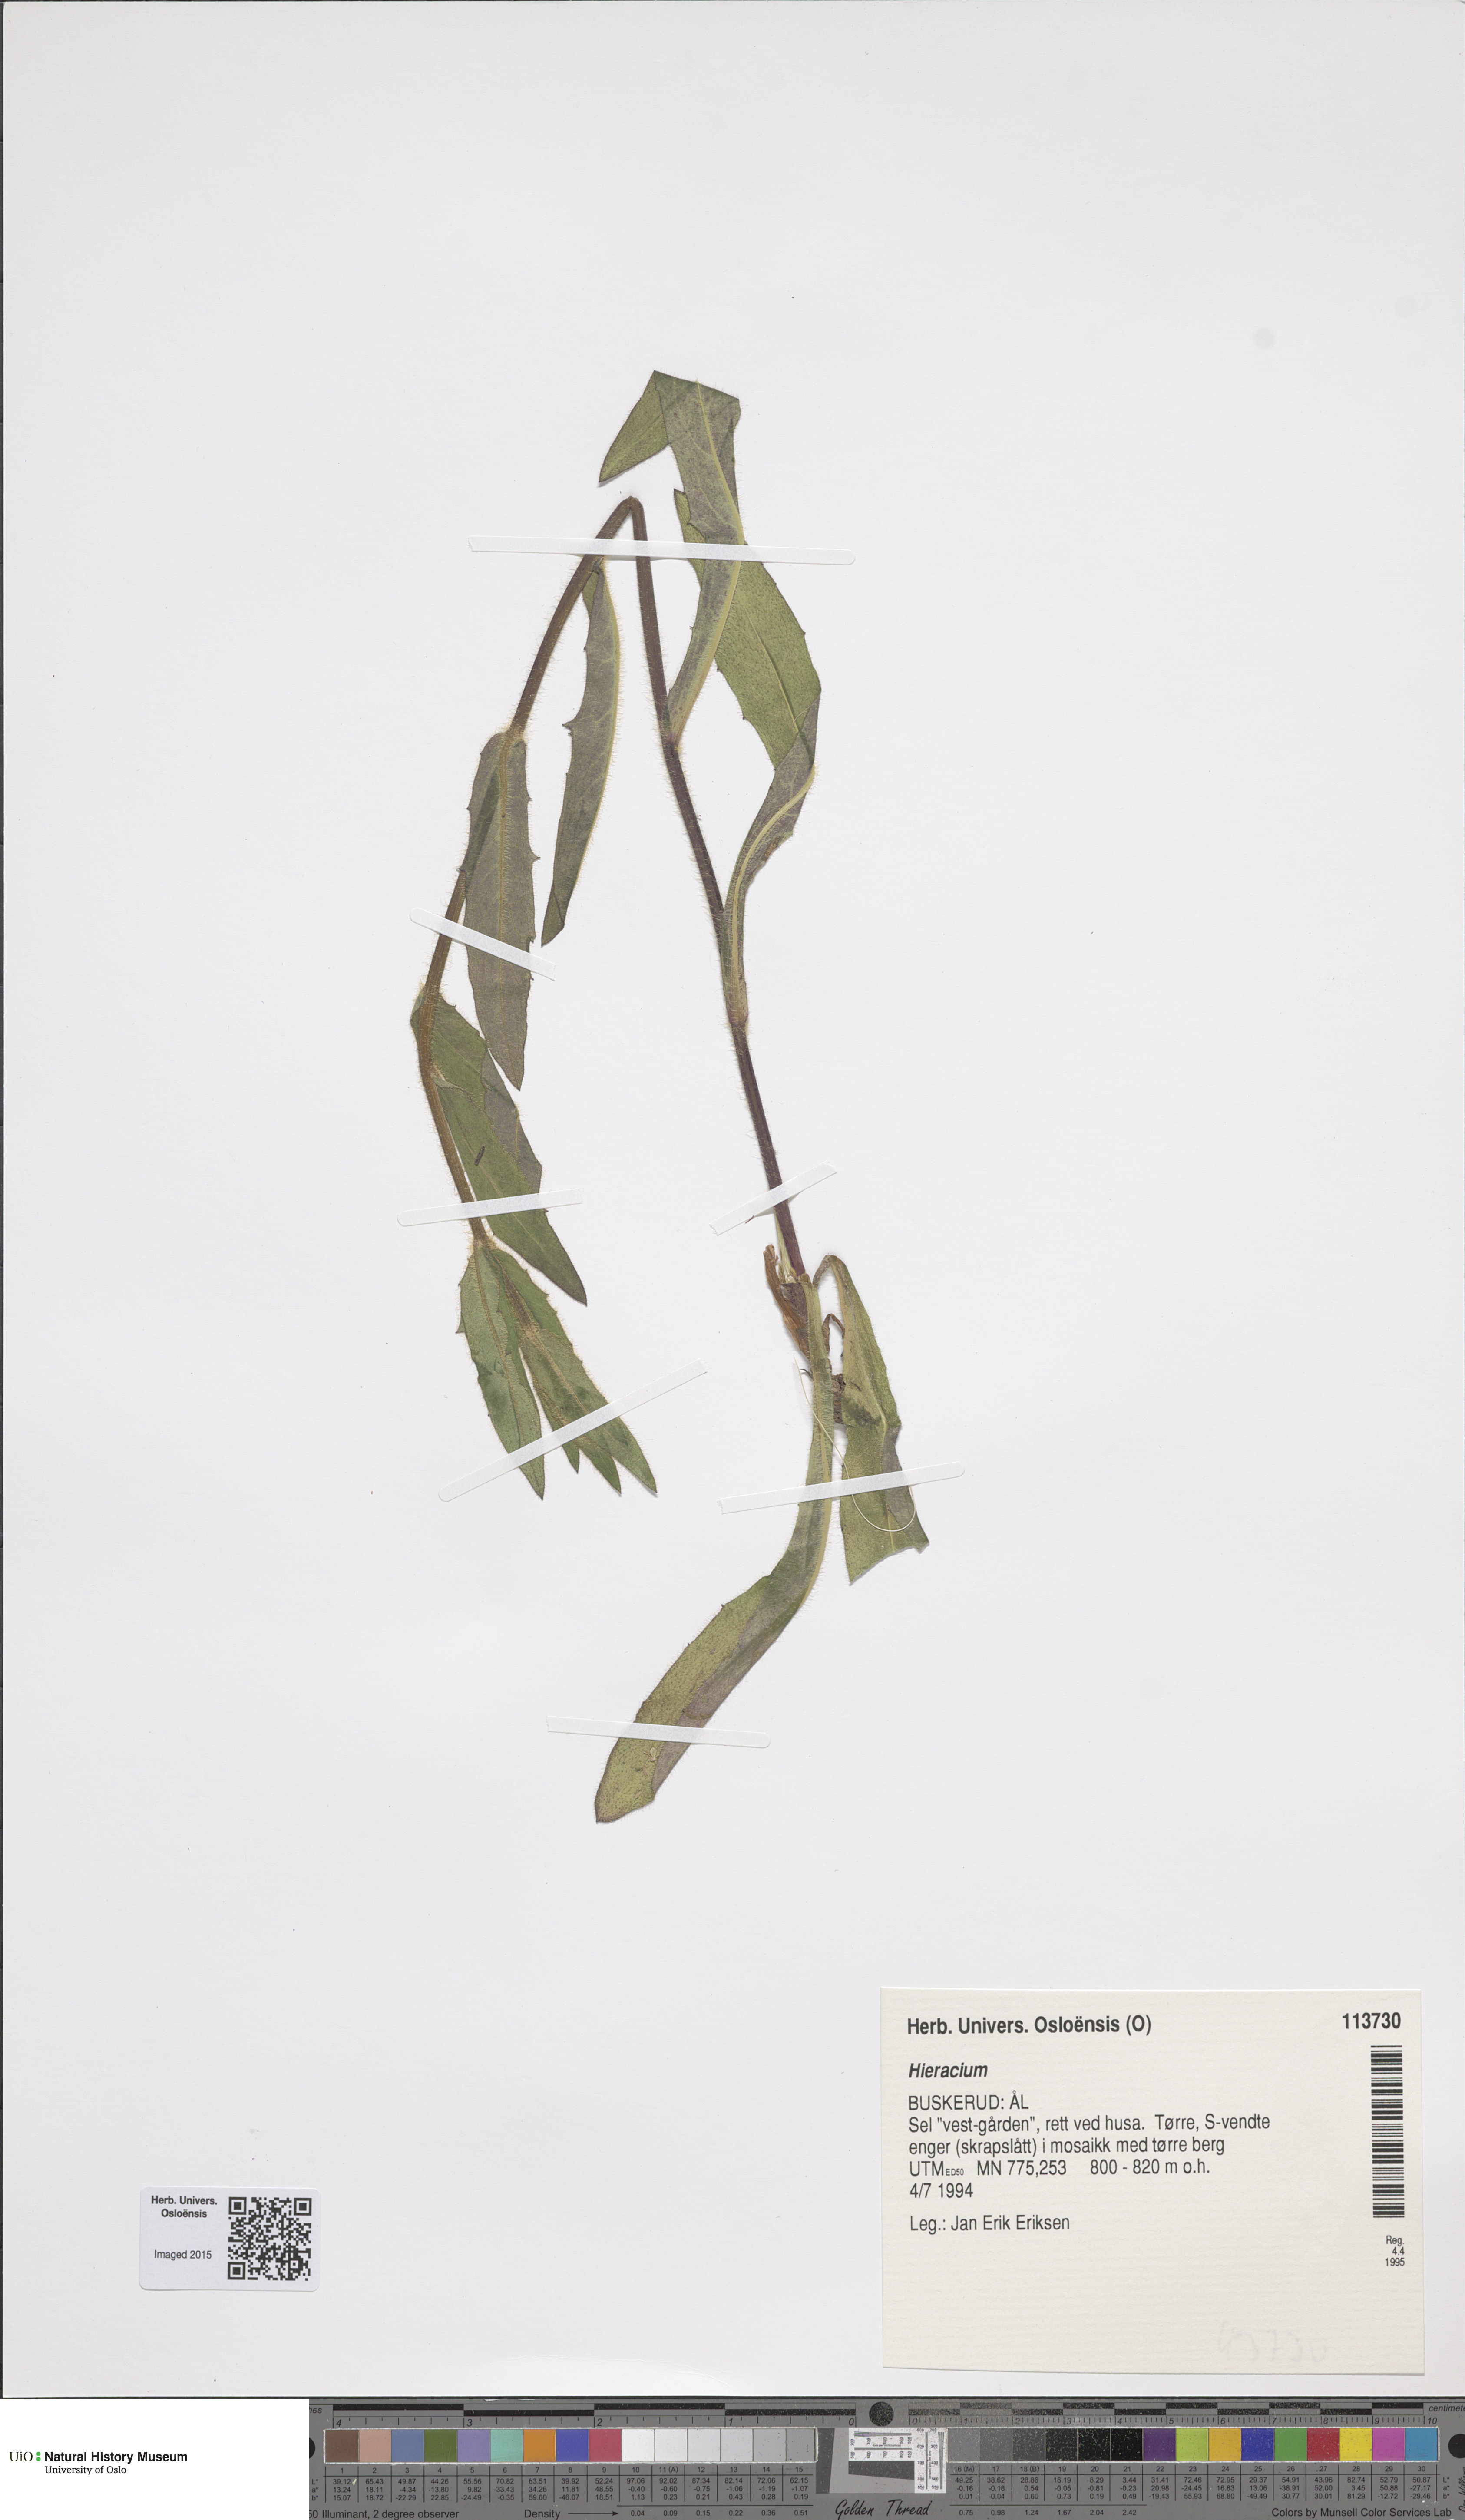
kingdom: Plantae
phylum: Tracheophyta
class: Magnoliopsida
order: Asterales
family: Asteraceae
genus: Hieracium
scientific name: Hieracium
